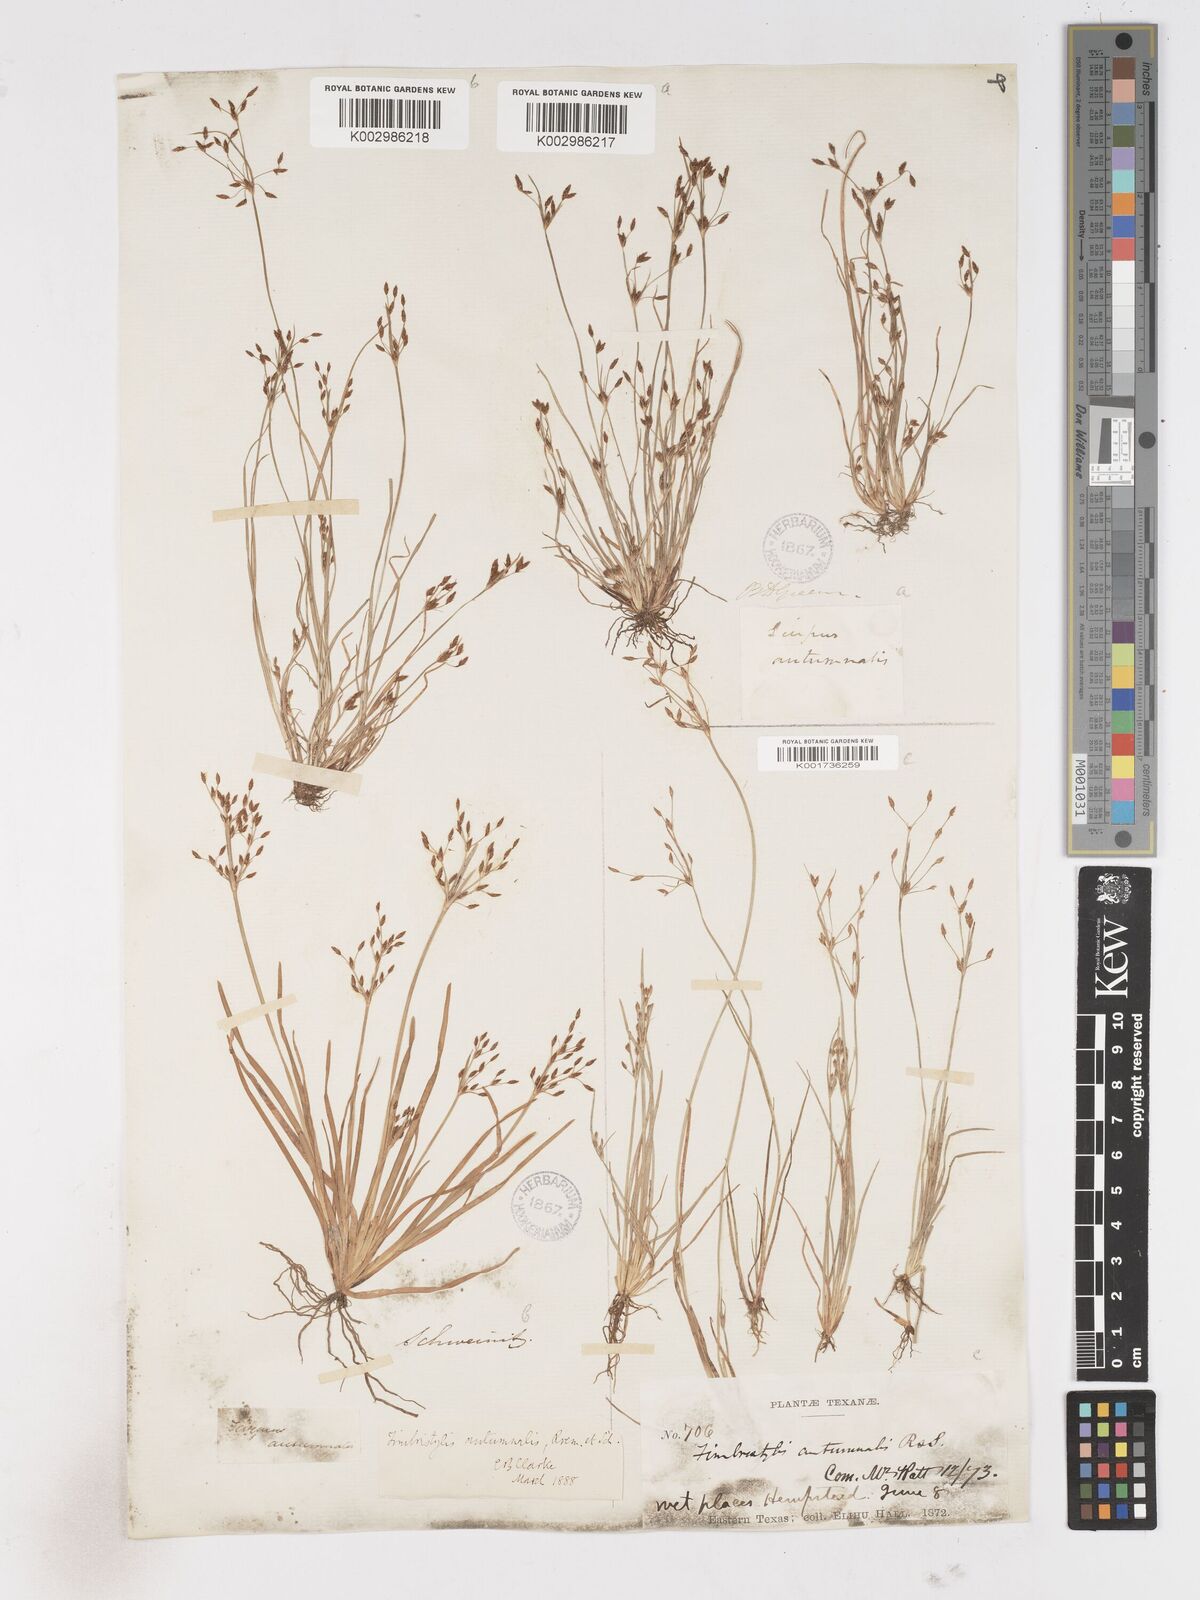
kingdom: Plantae
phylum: Tracheophyta
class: Liliopsida
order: Poales
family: Cyperaceae
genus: Fimbristylis
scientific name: Fimbristylis autumnalis
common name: Slender fimbristylis
